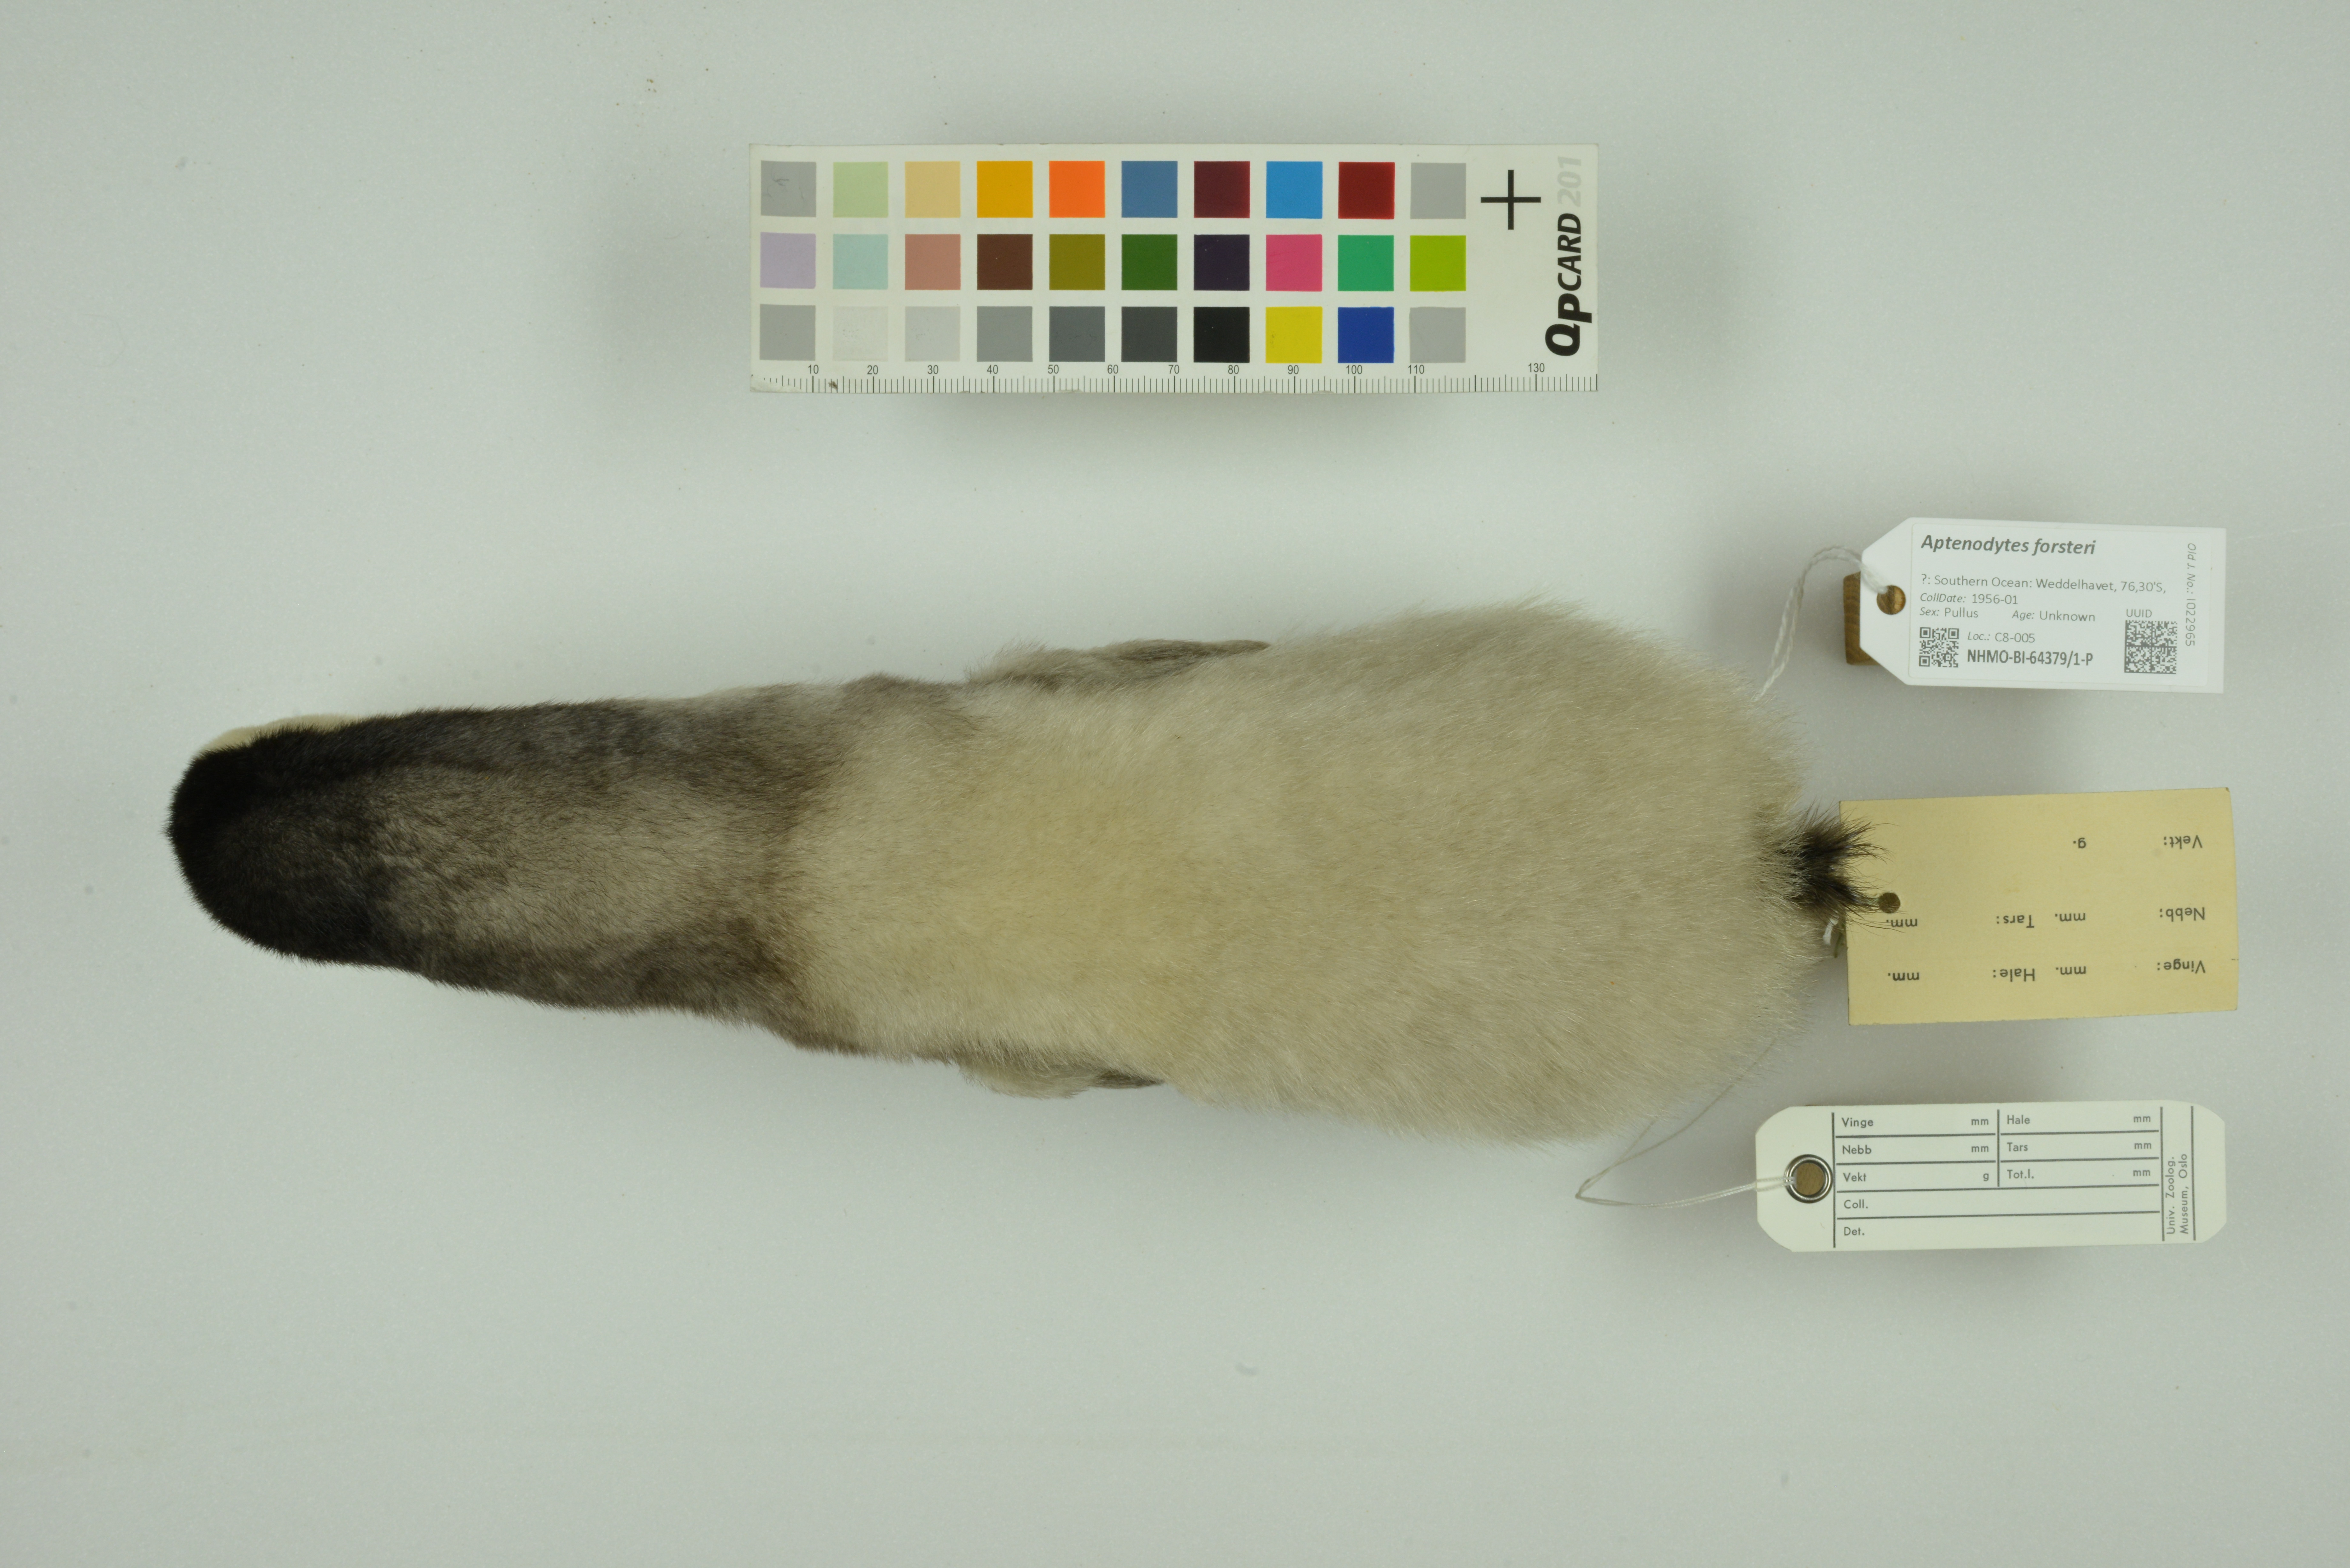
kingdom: Animalia
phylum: Chordata
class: Aves
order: Sphenisciformes
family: Spheniscidae
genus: Aptenodytes
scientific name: Aptenodytes forsteri
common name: Emperor penguin
